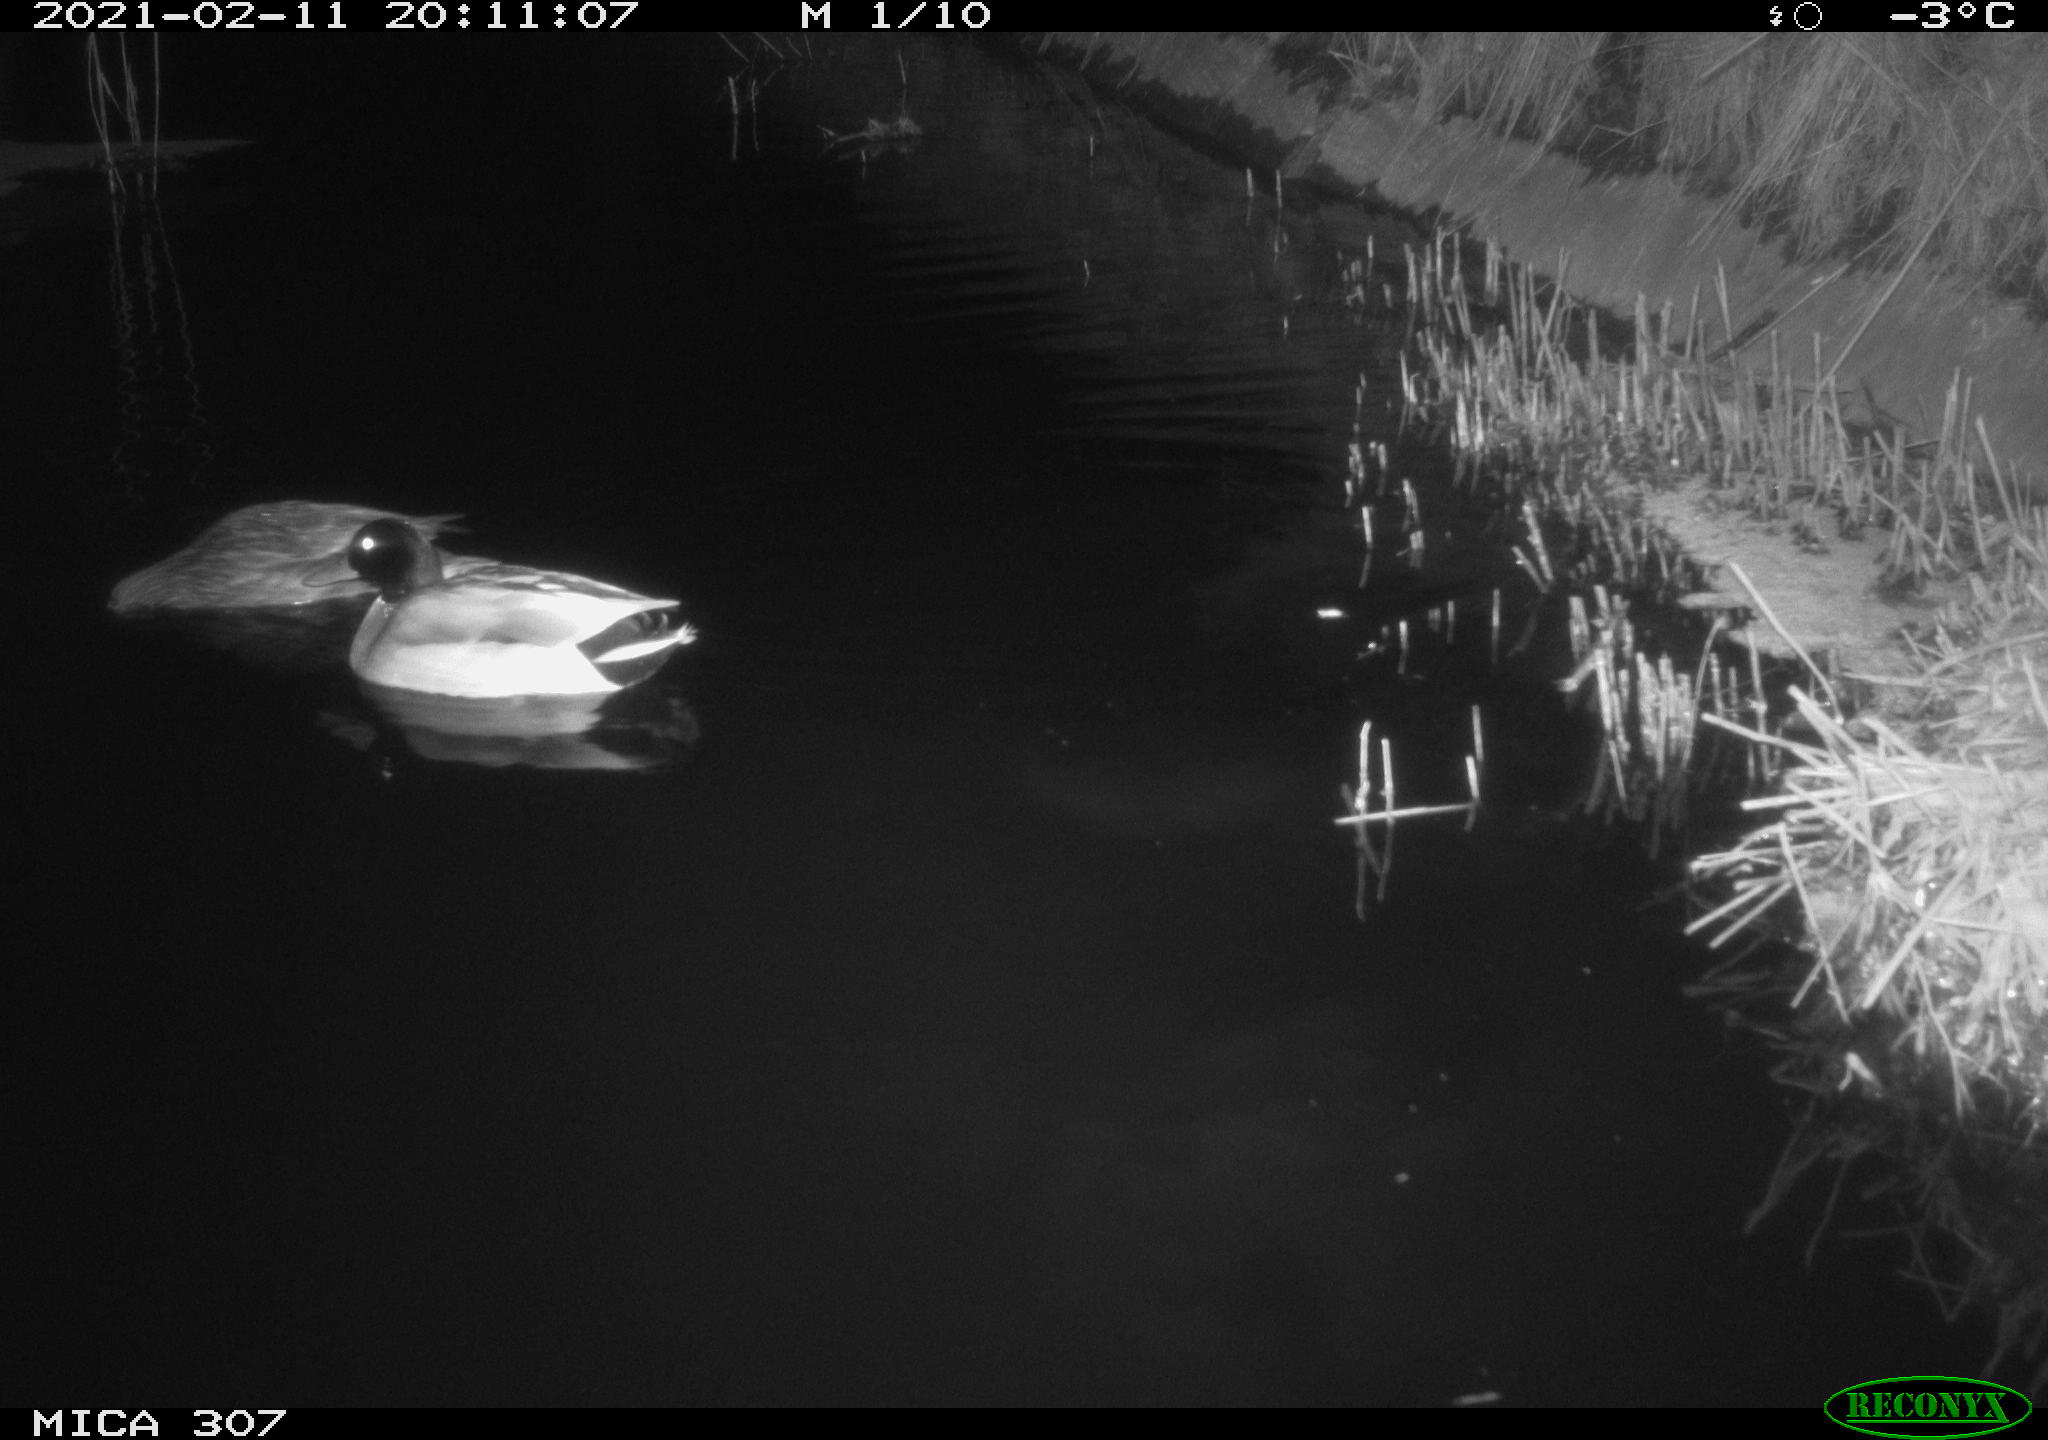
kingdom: Animalia
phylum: Chordata
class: Aves
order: Anseriformes
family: Anatidae
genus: Anas
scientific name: Anas platyrhynchos
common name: Mallard
